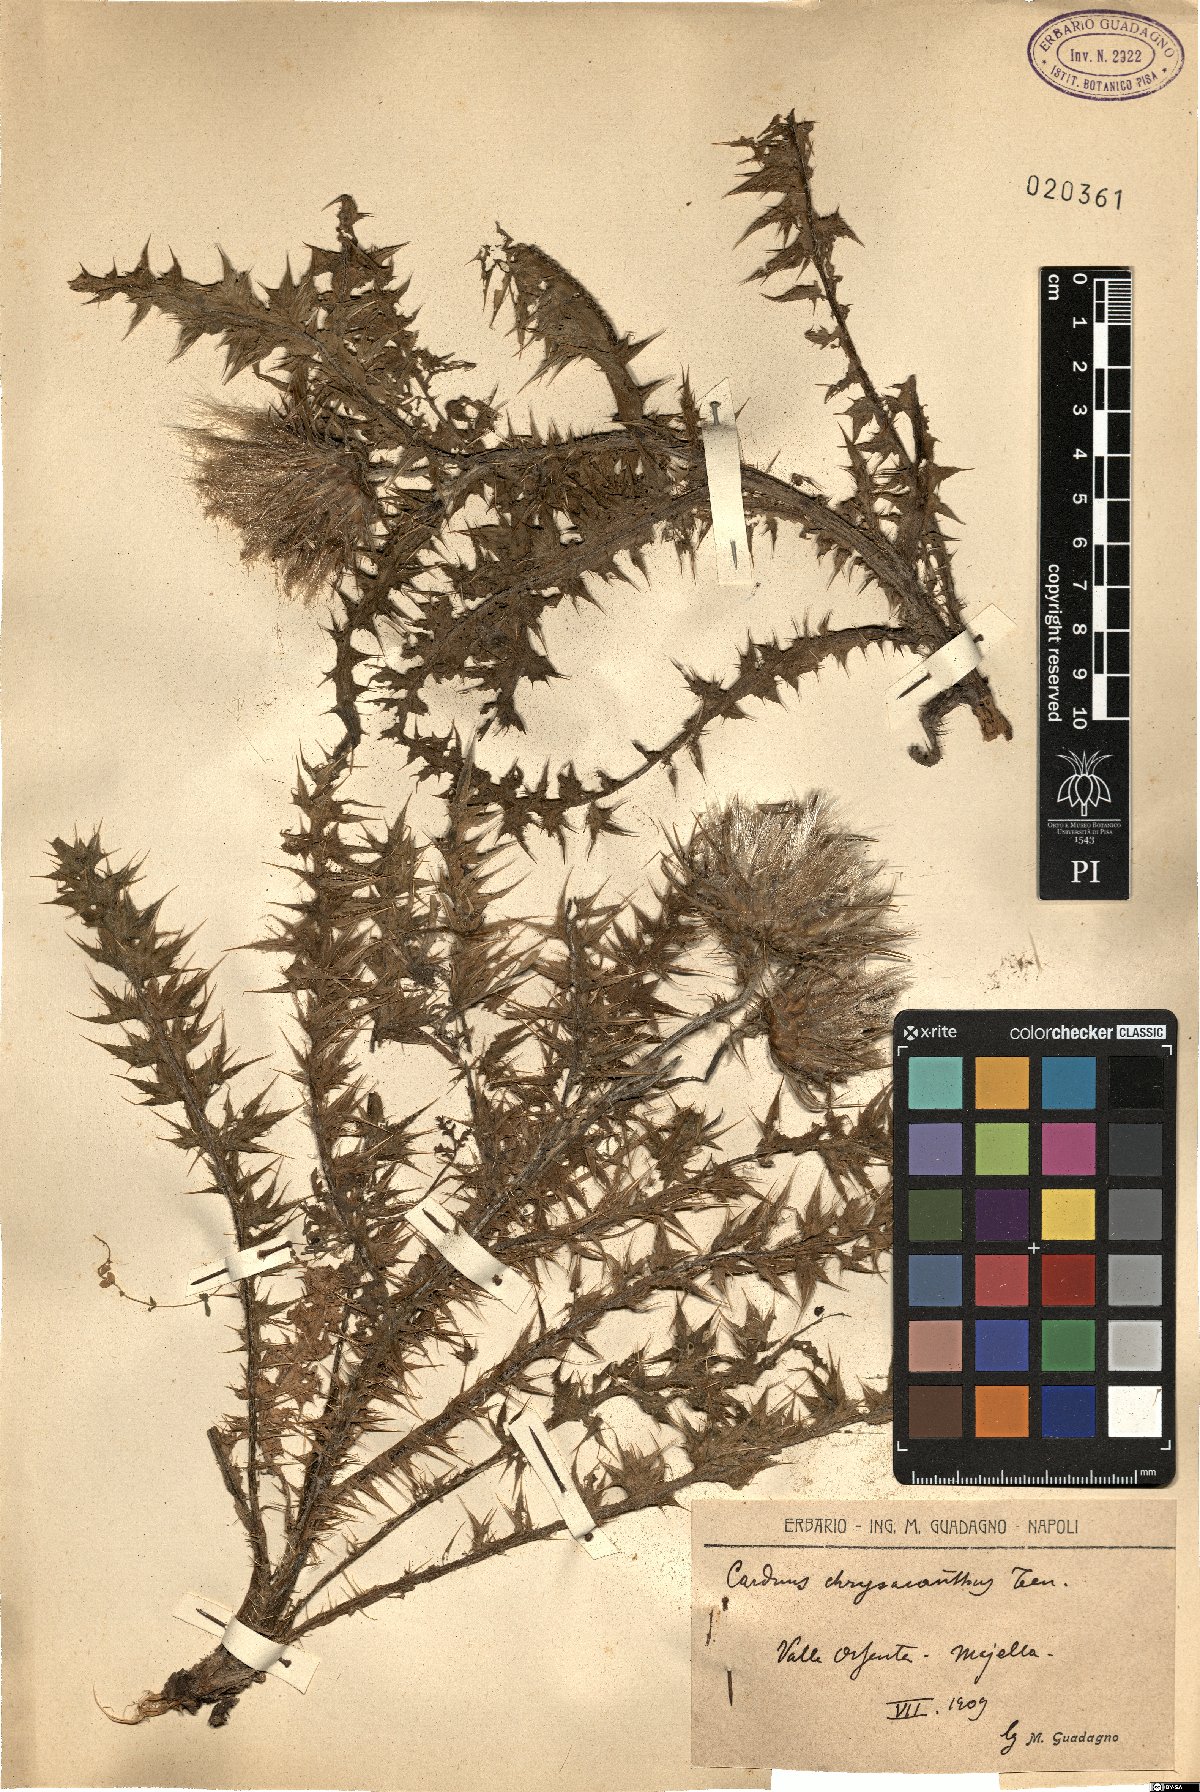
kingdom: Plantae
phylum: Tracheophyta
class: Magnoliopsida
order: Asterales
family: Asteraceae
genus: Carduus
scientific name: Carduus chrysacanthus
